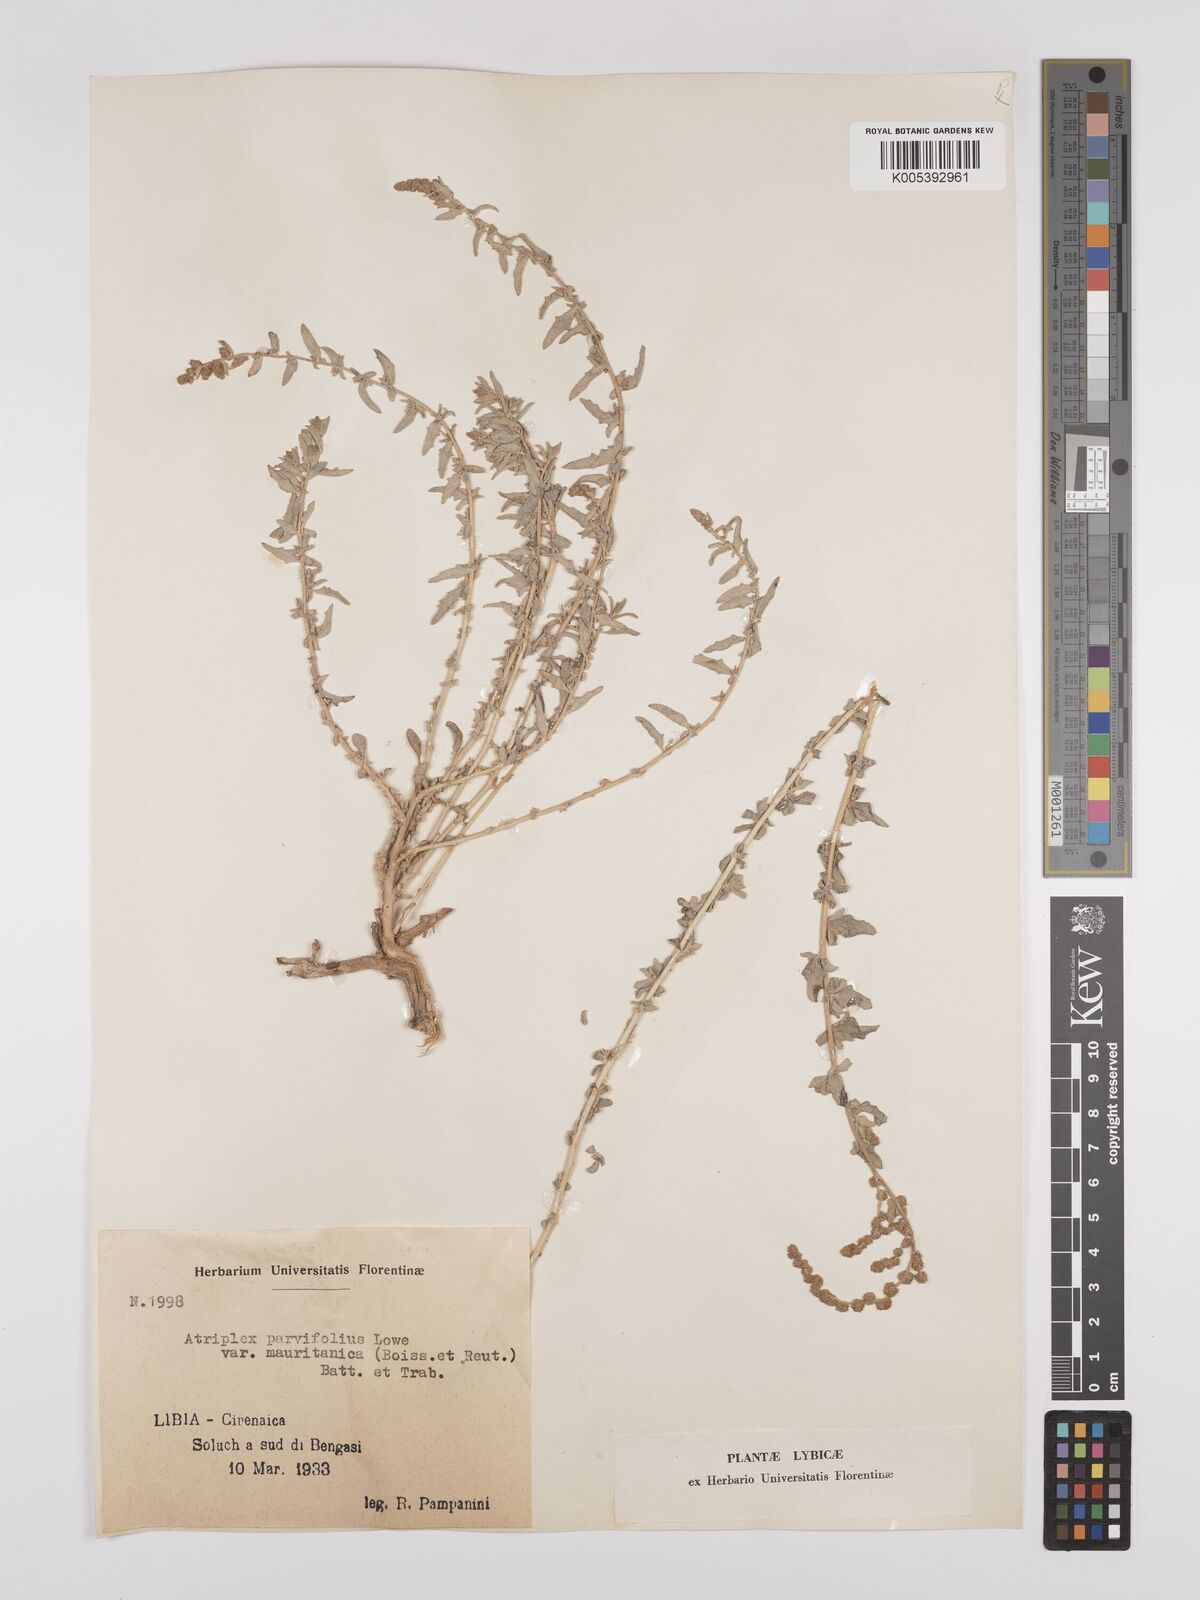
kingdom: Plantae
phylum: Tracheophyta
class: Magnoliopsida
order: Caryophyllales
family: Amaranthaceae
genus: Atriplex
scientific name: Atriplex
